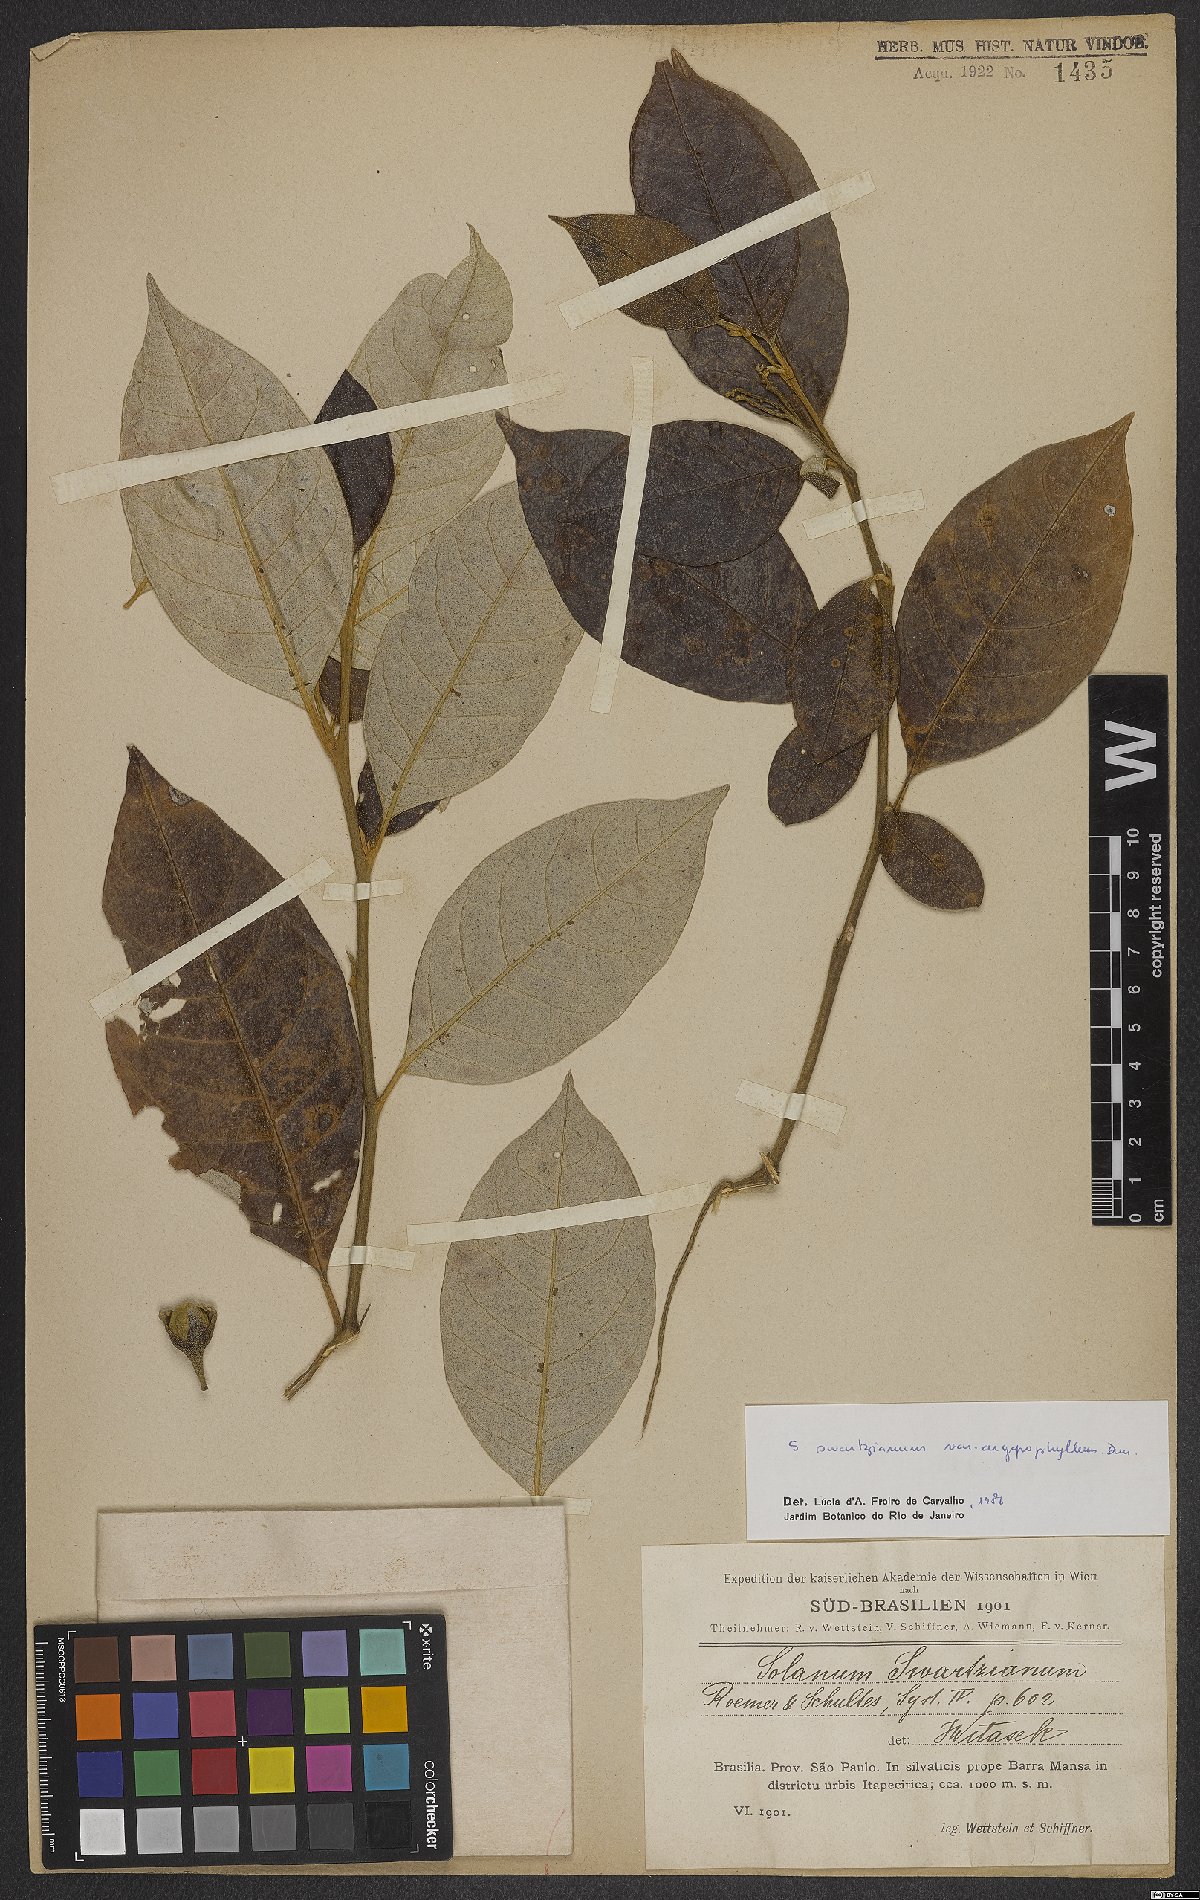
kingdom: Plantae
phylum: Tracheophyta
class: Magnoliopsida
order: Solanales
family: Solanaceae
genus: Solanum
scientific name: Solanum swartzianum
